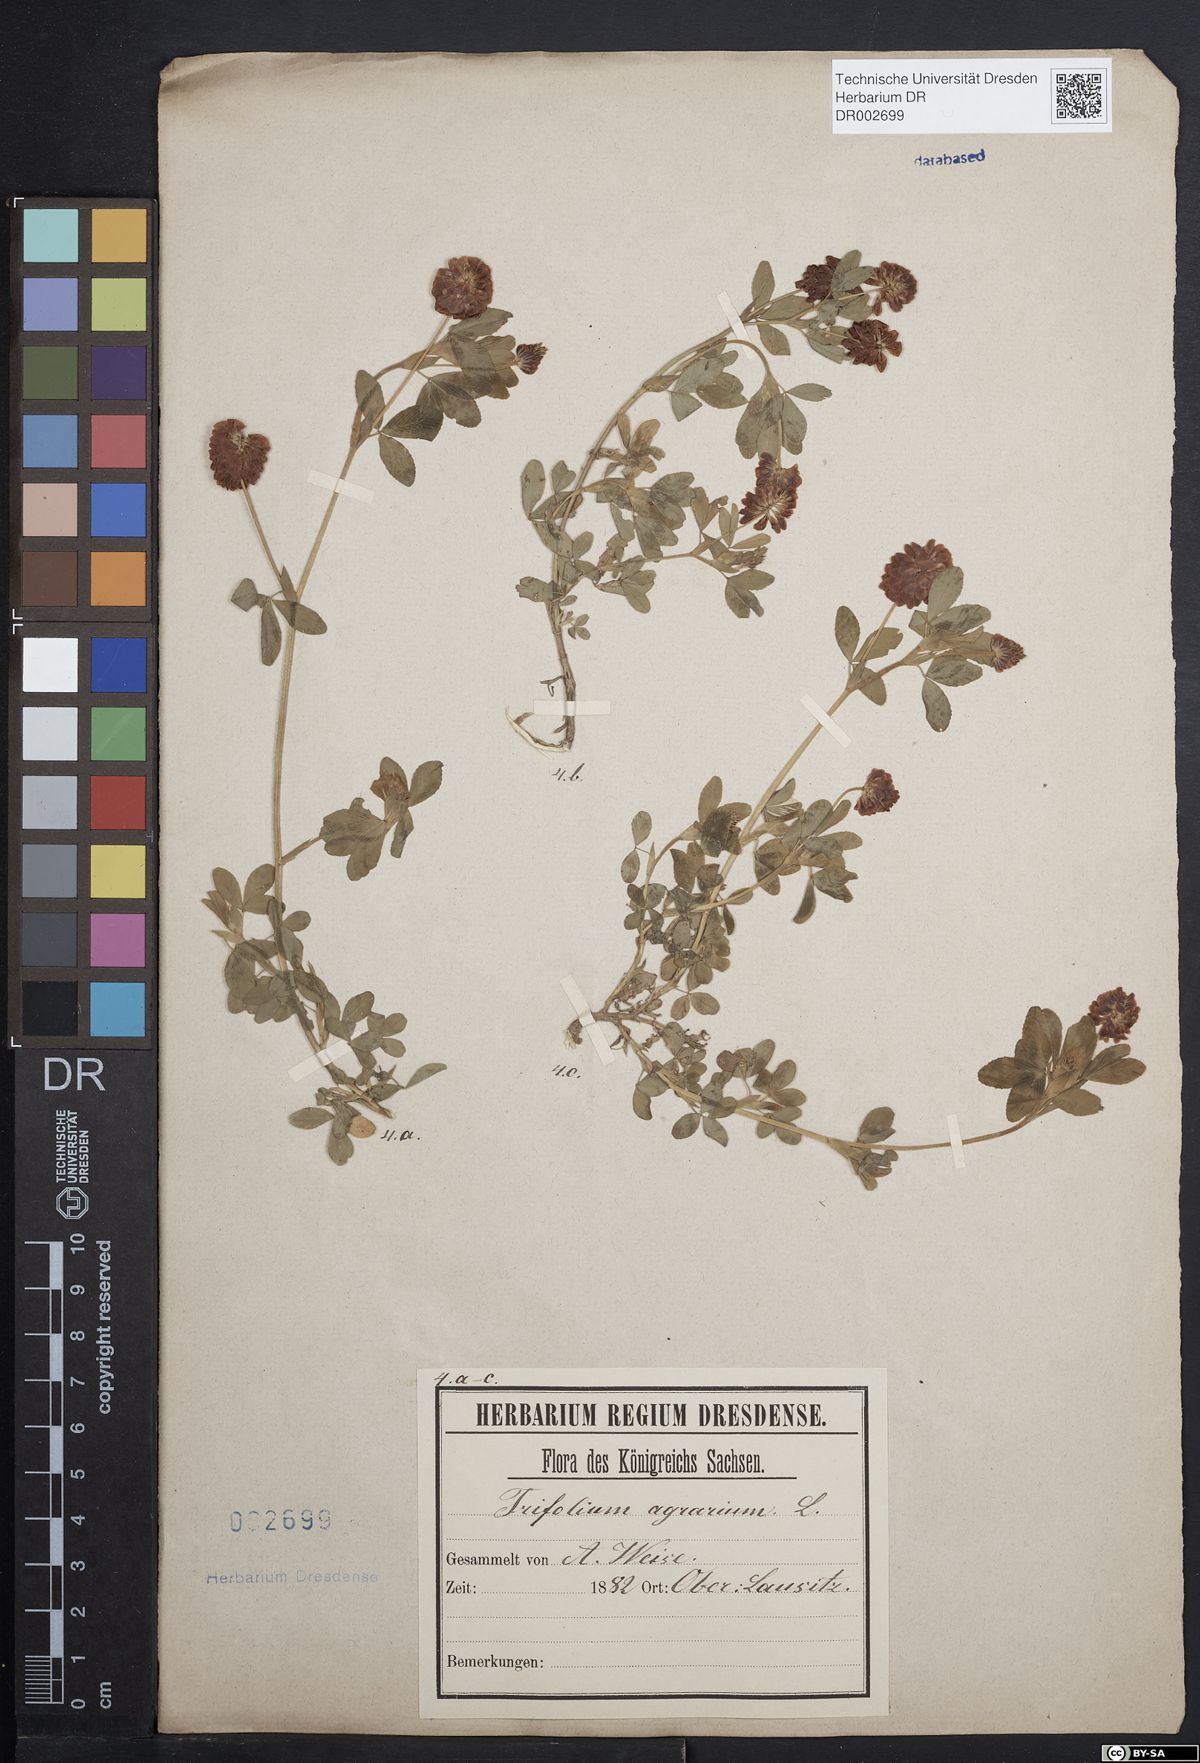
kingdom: Plantae
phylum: Tracheophyta
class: Magnoliopsida
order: Fabales
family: Fabaceae
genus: Trifolium
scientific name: Trifolium aureum
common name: Golden clover
